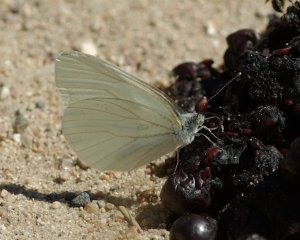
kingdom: Animalia
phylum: Arthropoda
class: Insecta
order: Lepidoptera
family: Pieridae
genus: Pieris
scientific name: Pieris oleracea
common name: Mustard White
